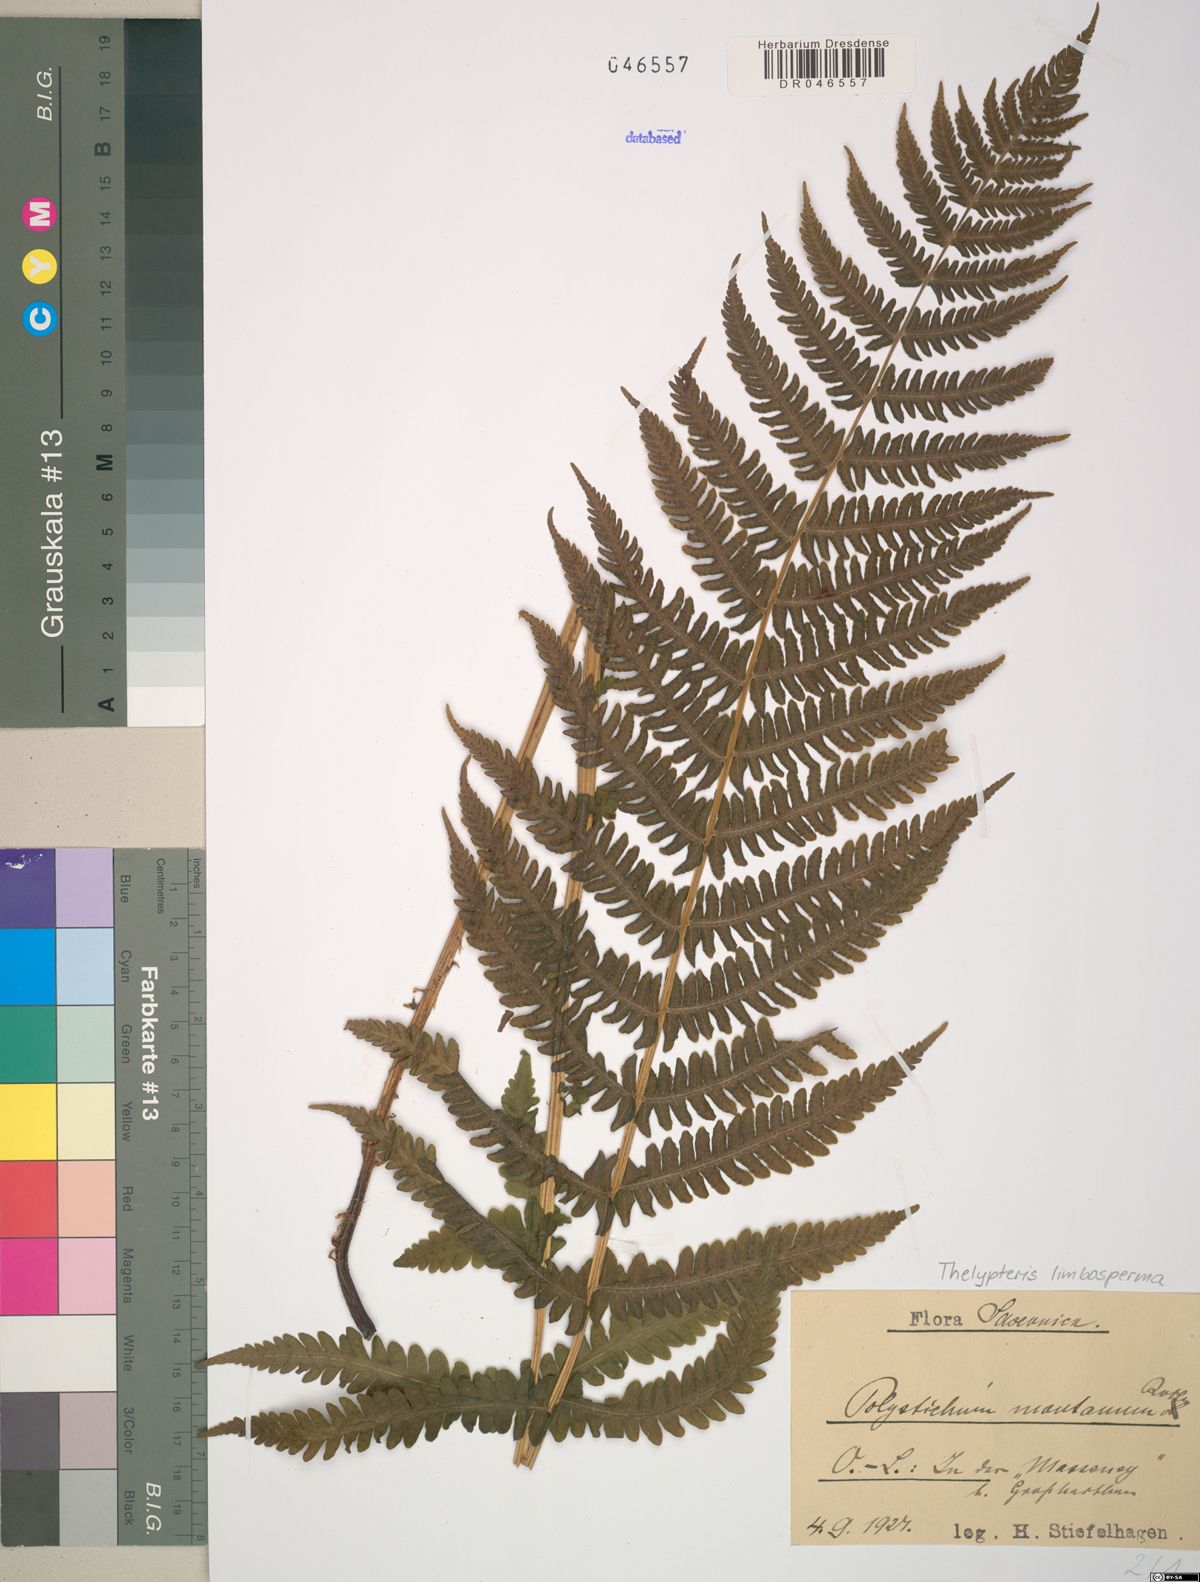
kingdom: Plantae
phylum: Tracheophyta
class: Polypodiopsida
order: Polypodiales
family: Thelypteridaceae
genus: Oreopteris
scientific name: Oreopteris limbosperma
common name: Lemon-scented fern
